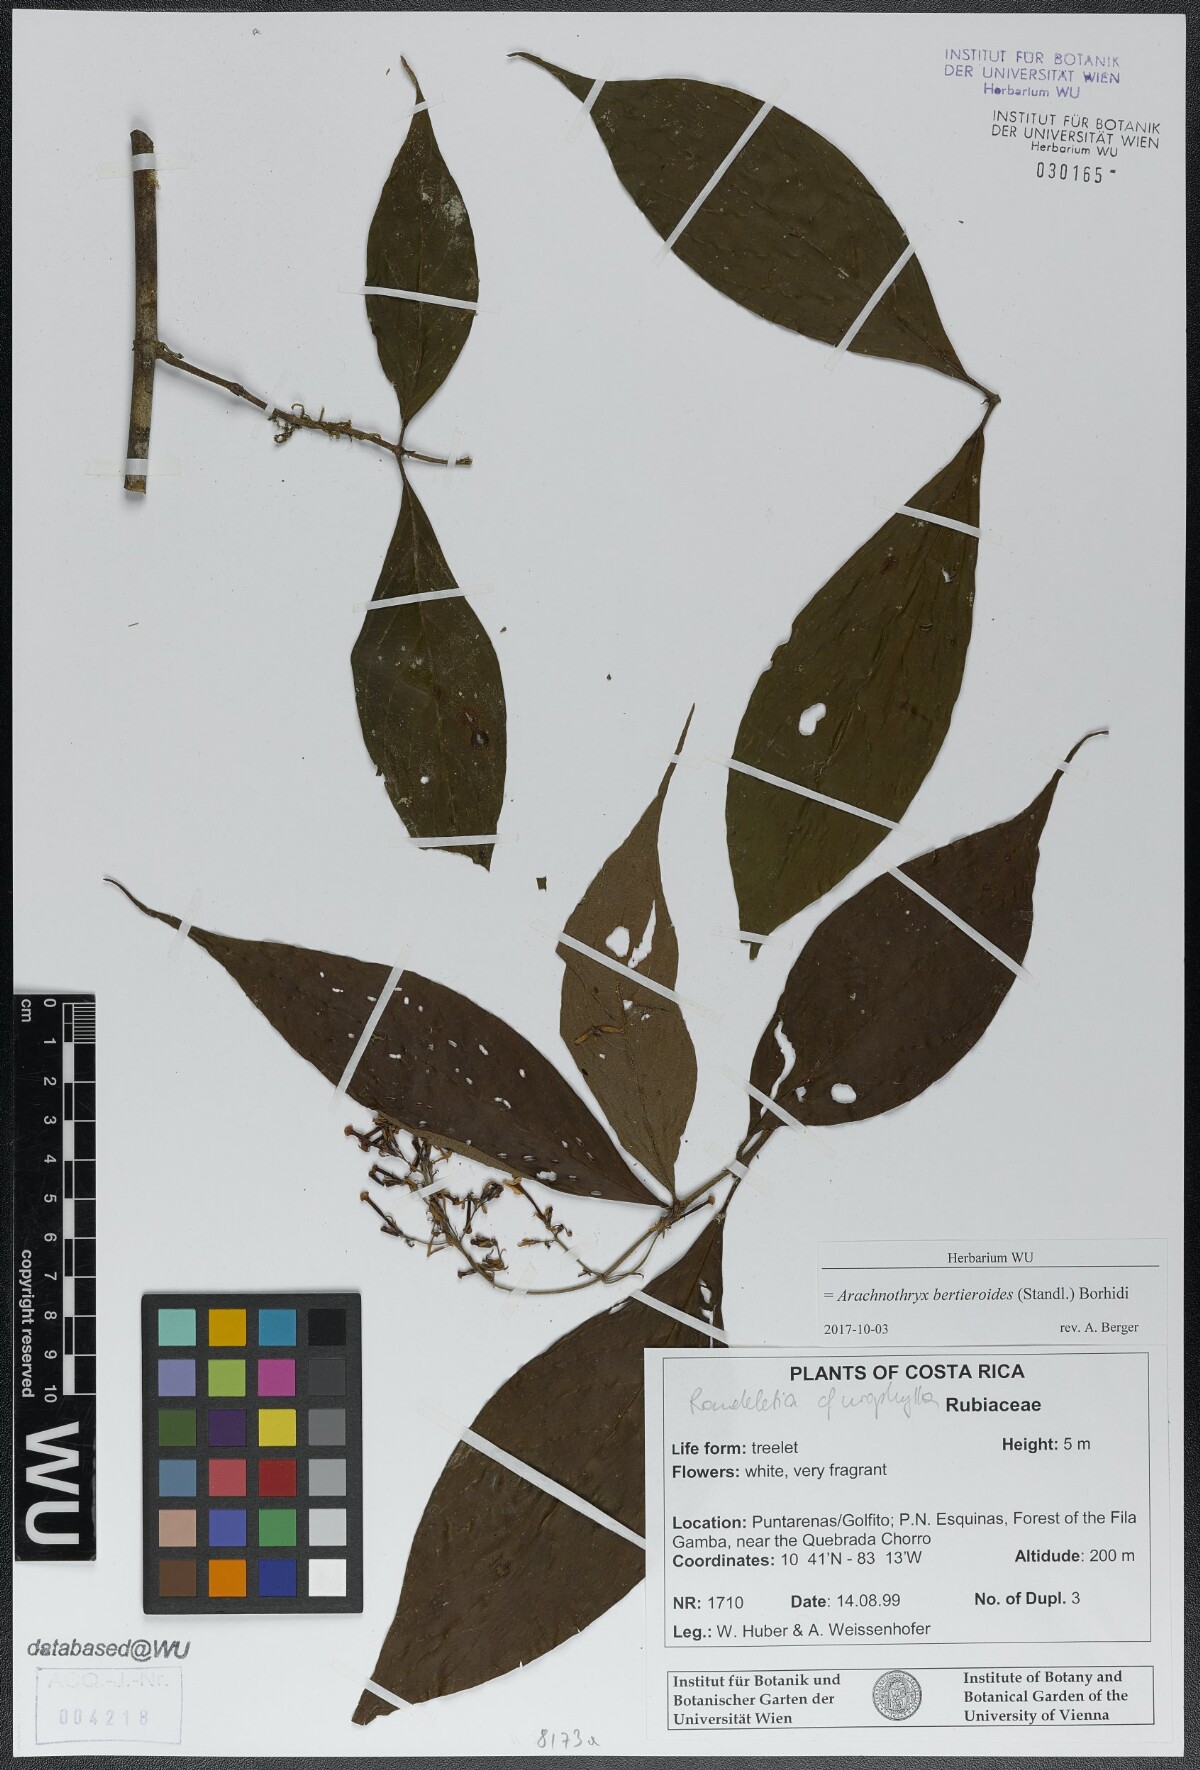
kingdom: Plantae
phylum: Tracheophyta
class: Magnoliopsida
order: Gentianales
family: Rubiaceae
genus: Arachnothryx
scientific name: Arachnothryx bertieroides
